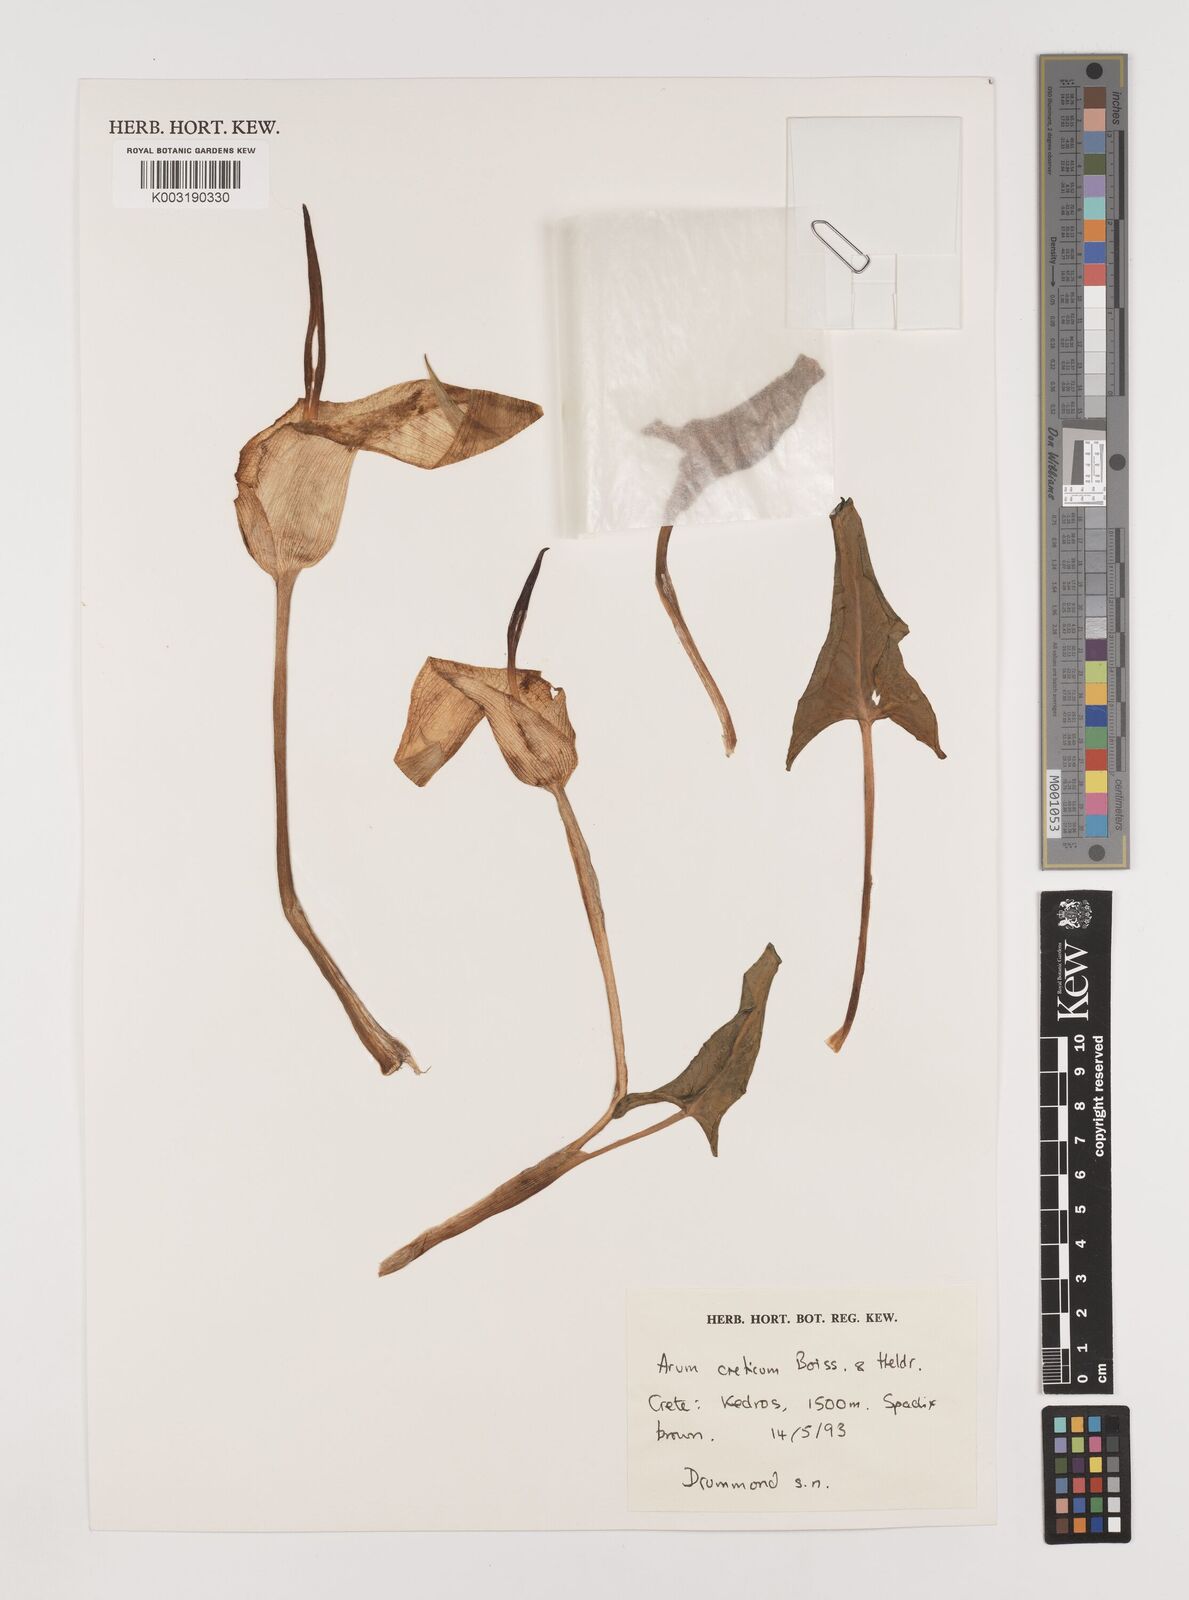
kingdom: Plantae
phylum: Tracheophyta
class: Liliopsida
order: Alismatales
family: Araceae
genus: Arum
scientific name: Arum idaeum
